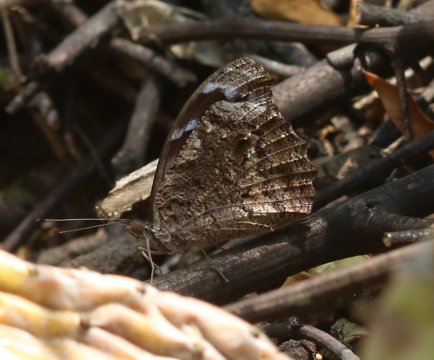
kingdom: Animalia
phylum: Arthropoda
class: Insecta
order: Lepidoptera
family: Nymphalidae
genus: Myscelia
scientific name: Myscelia cyananthe
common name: Blackened Bluewing
